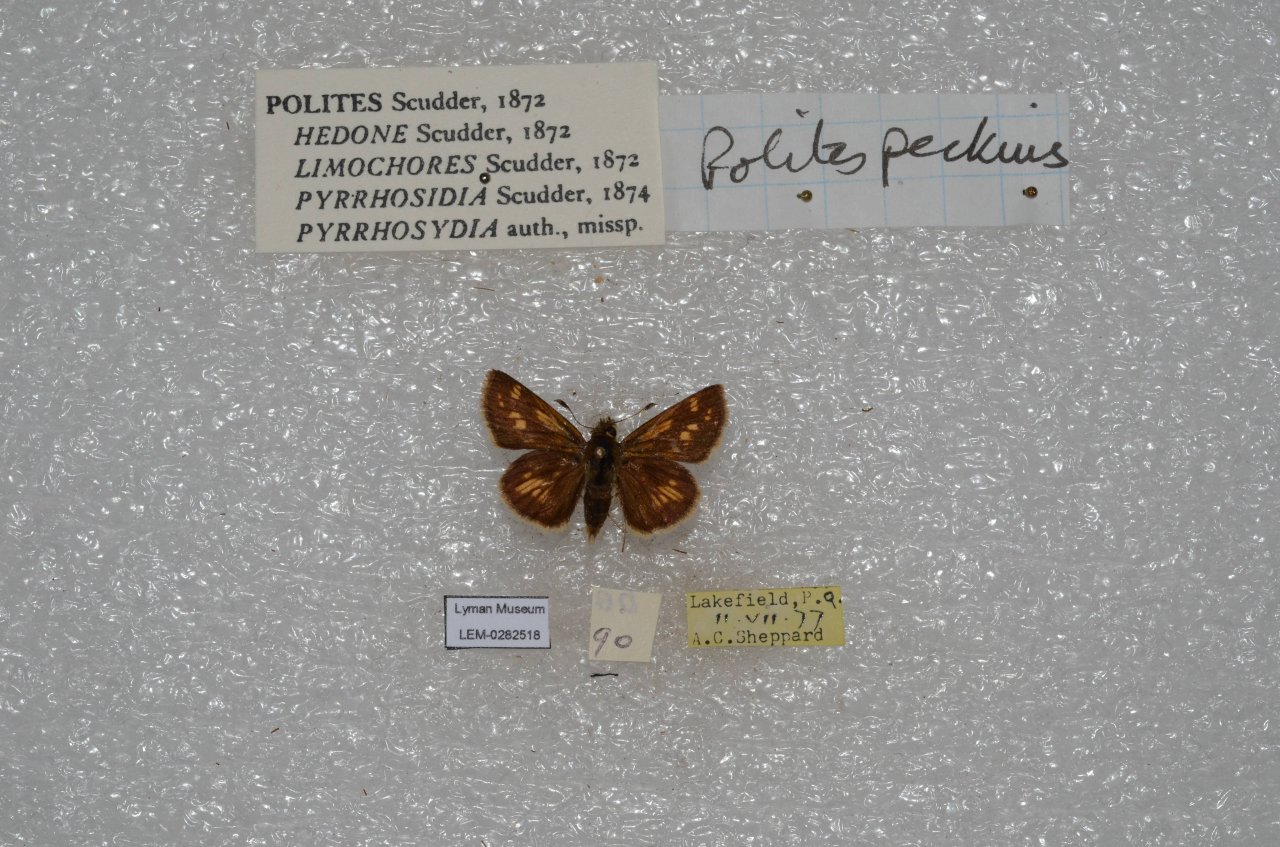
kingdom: Animalia
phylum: Arthropoda
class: Insecta
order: Lepidoptera
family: Hesperiidae
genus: Polites
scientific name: Polites coras
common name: Peck's Skipper
